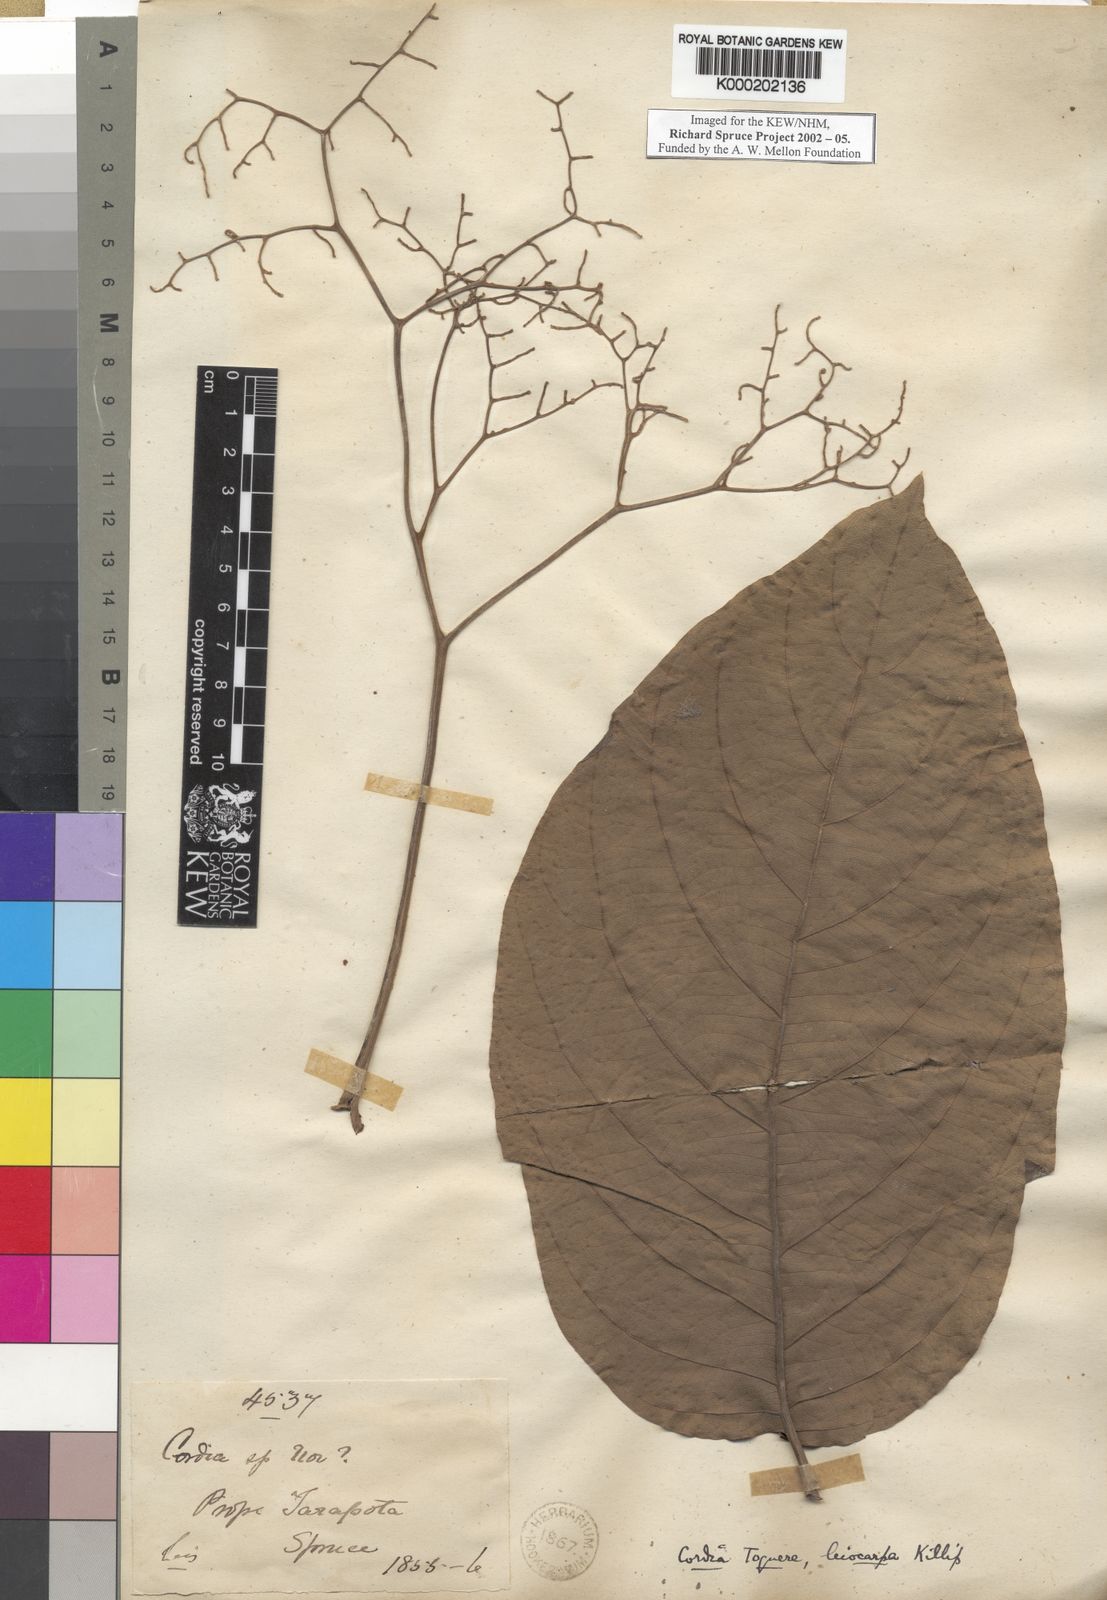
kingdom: Plantae
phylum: Tracheophyta
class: Magnoliopsida
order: Boraginales
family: Cordiaceae
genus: Cordia
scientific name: Cordia toqueve
